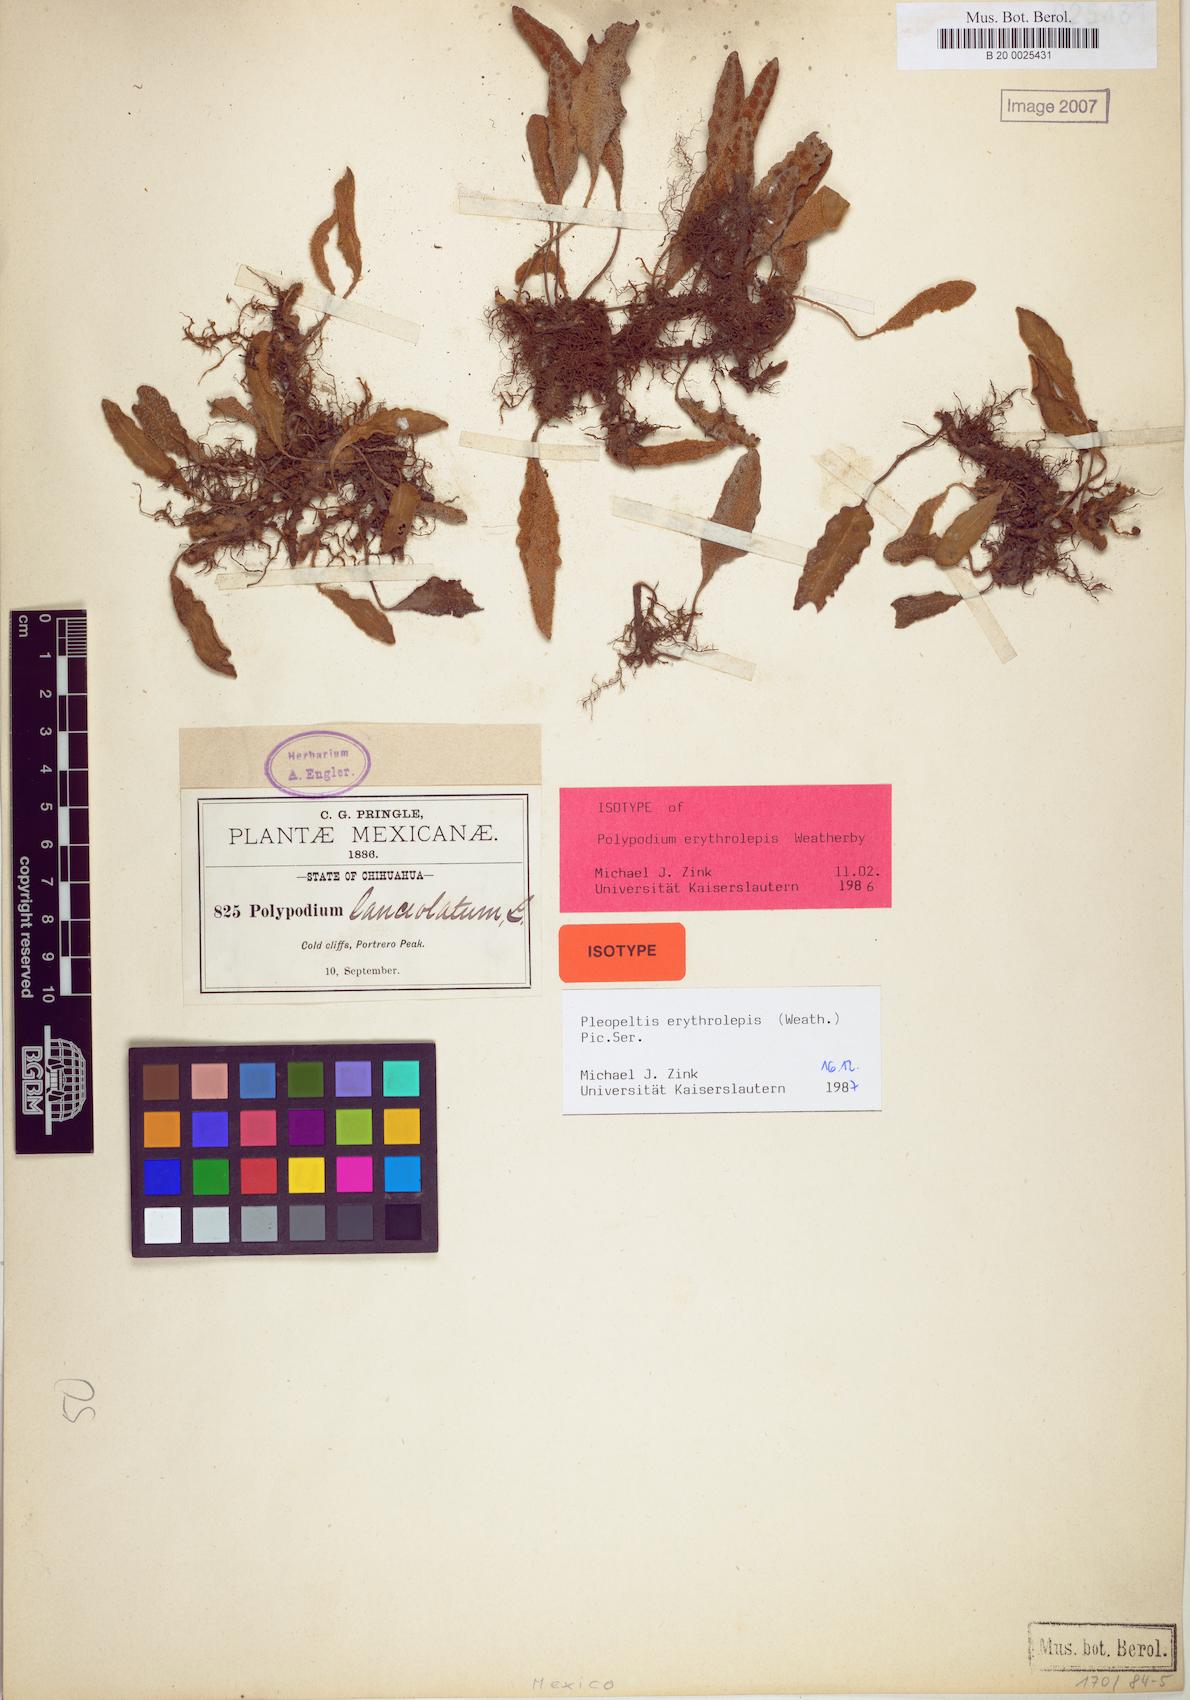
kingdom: Plantae
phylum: Tracheophyta
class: Polypodiopsida
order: Polypodiales
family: Polypodiaceae
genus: Pleopeltis
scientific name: Pleopeltis polylepis
